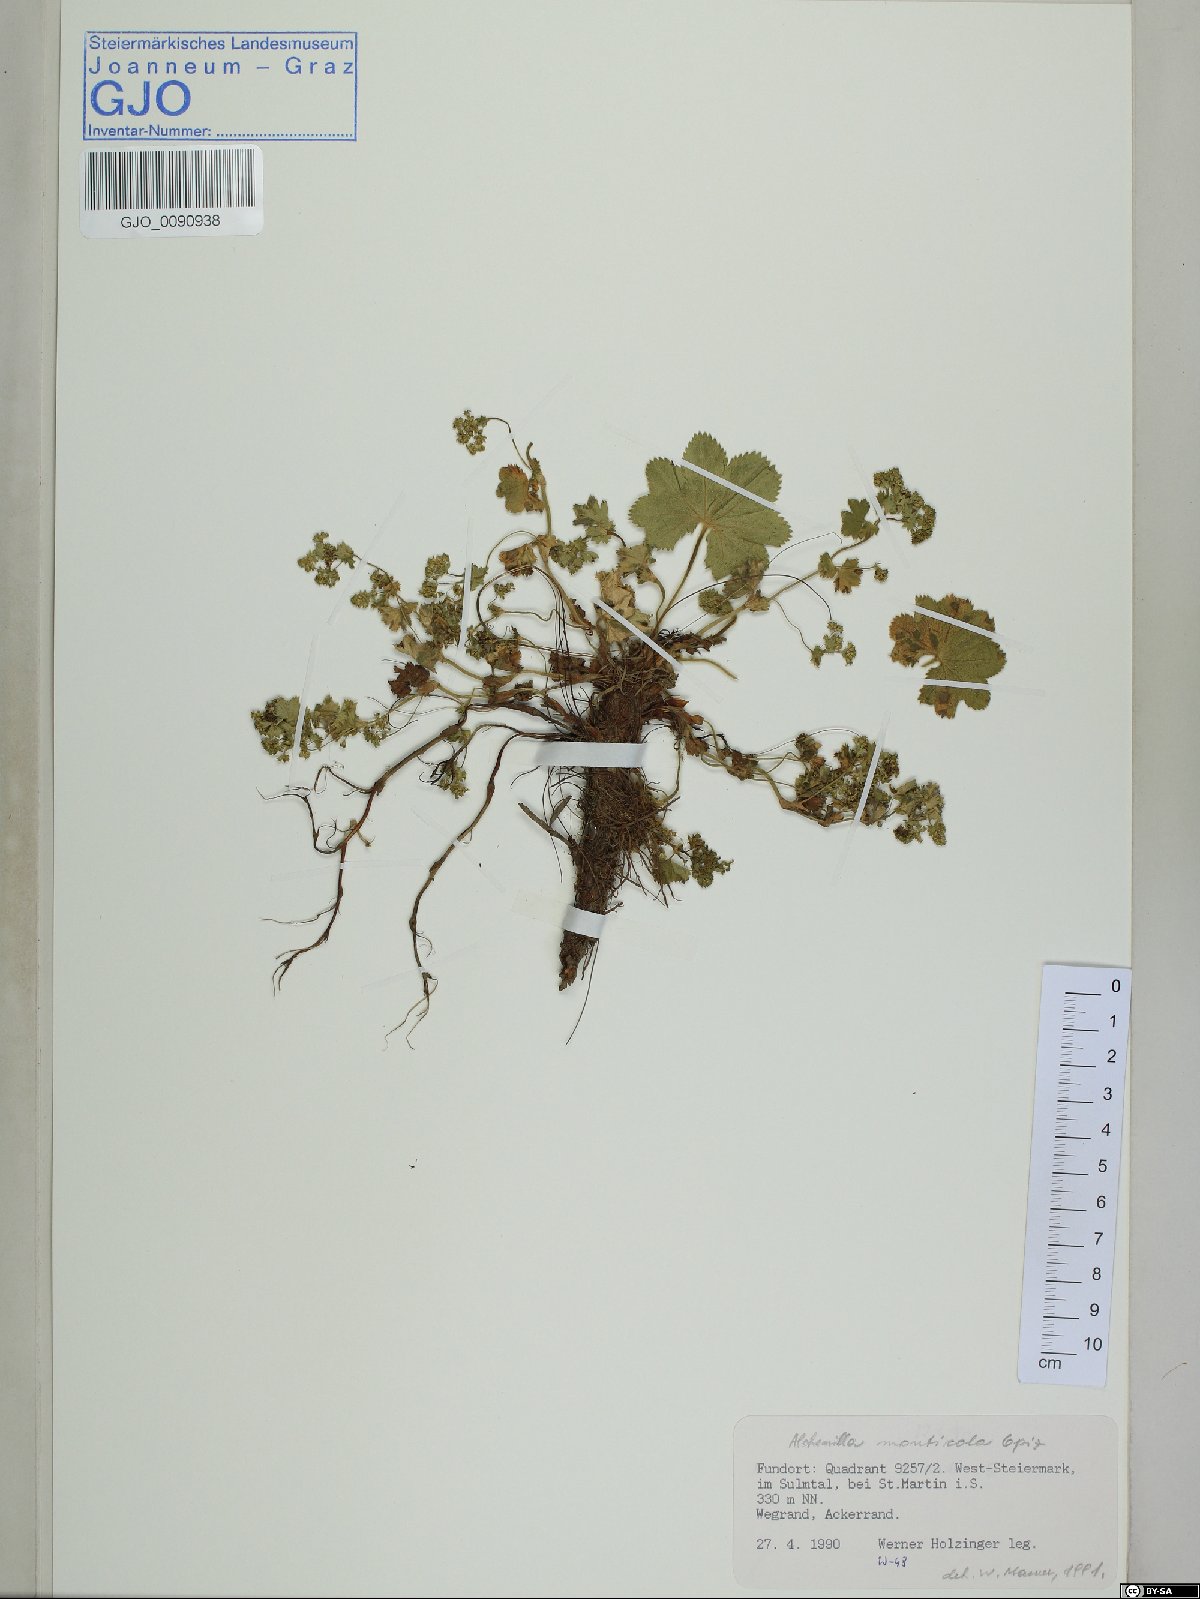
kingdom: Plantae
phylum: Tracheophyta
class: Magnoliopsida
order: Rosales
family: Rosaceae
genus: Alchemilla
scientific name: Alchemilla monticola
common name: Hairy lady's mantle
